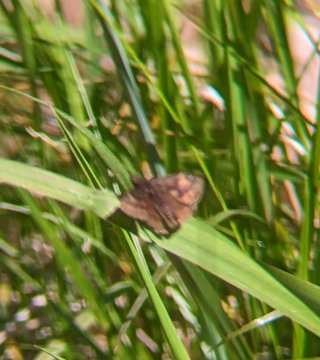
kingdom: Animalia
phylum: Arthropoda
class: Insecta
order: Lepidoptera
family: Hesperiidae
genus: Gesta
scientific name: Gesta
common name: Wild Indigo Duskywing
